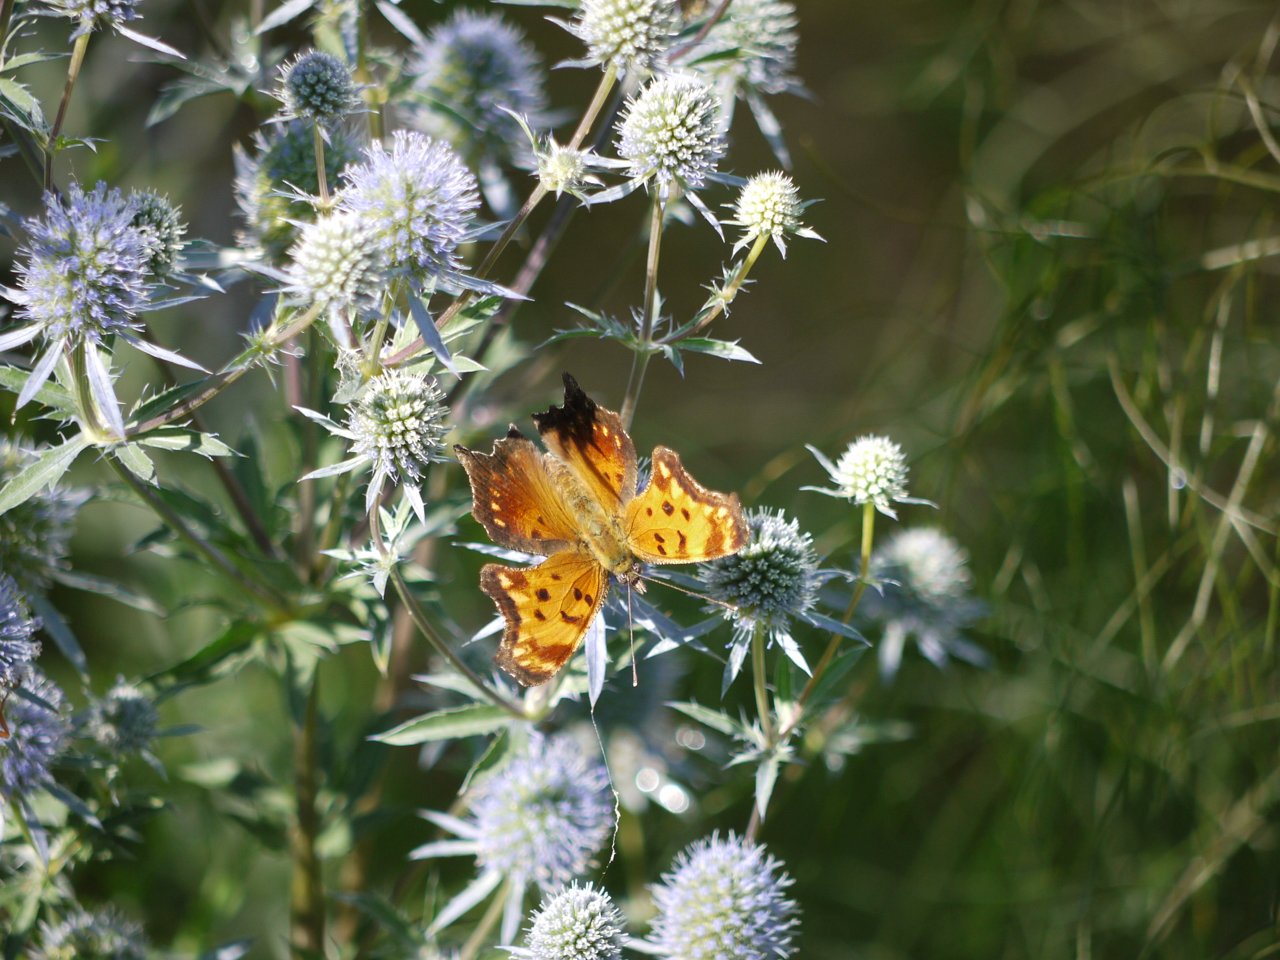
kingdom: Animalia
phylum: Arthropoda
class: Insecta
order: Lepidoptera
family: Nymphalidae
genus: Polygonia
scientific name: Polygonia progne
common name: Gray Comma
